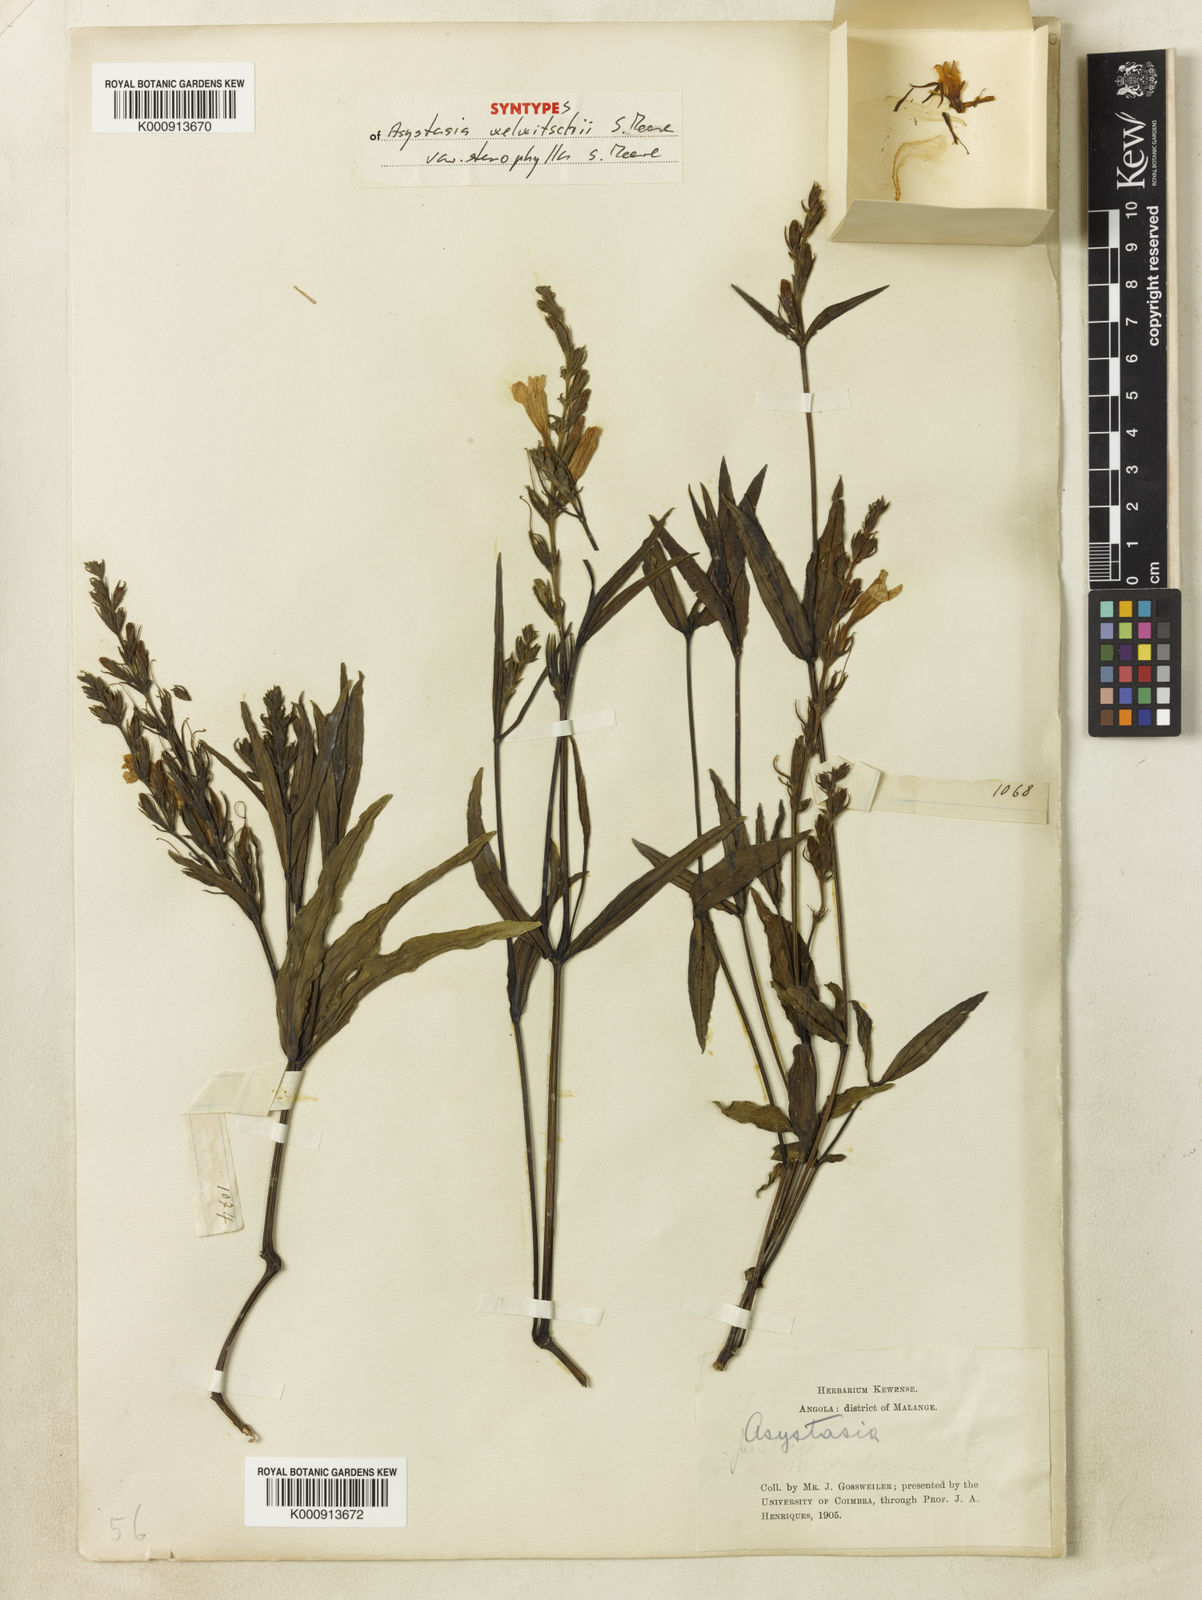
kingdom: Plantae
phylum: Tracheophyta
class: Magnoliopsida
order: Lamiales
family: Acanthaceae
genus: Asystasia
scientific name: Asystasia welwitschii
